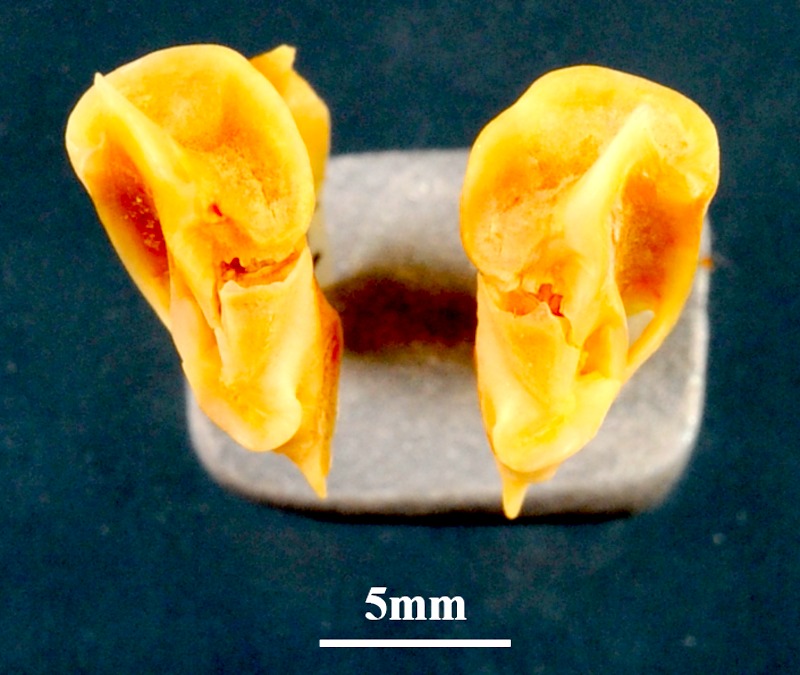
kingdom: Animalia
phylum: Chordata
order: Perciformes
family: Sciaenidae
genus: Umbrina
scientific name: Umbrina ronchus
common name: Slender baardman
